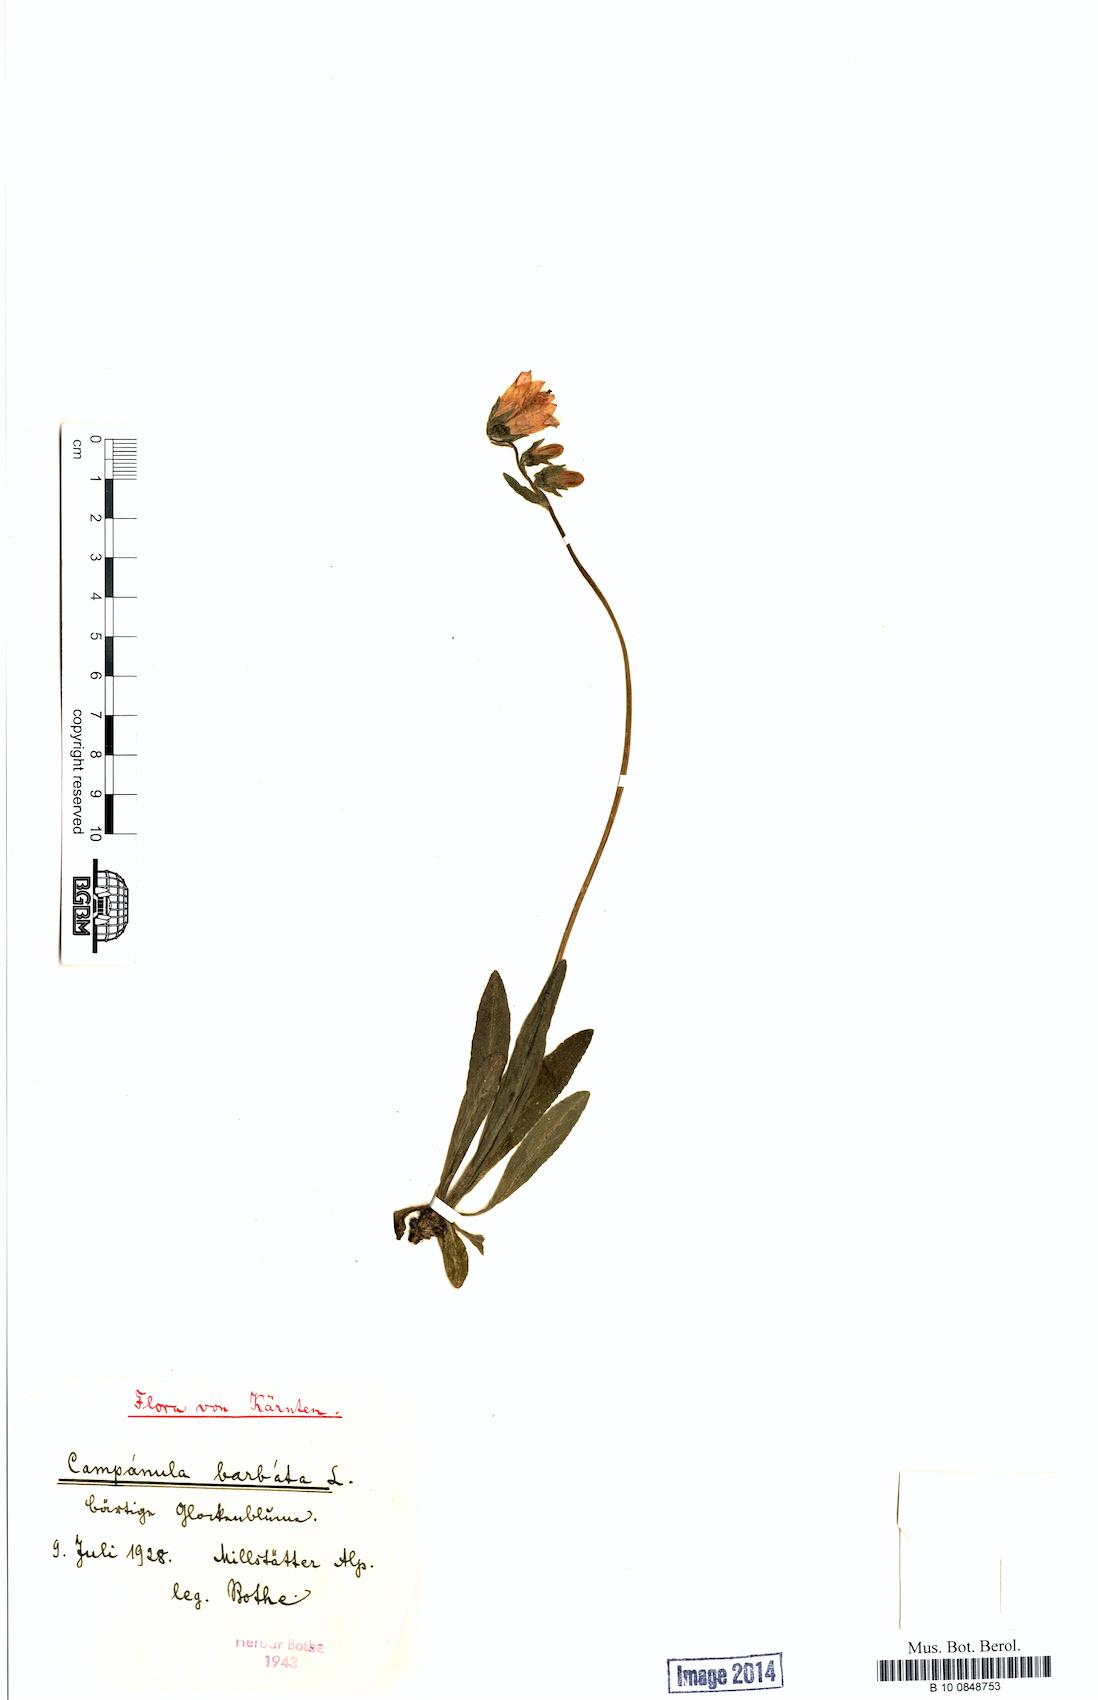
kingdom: Plantae
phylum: Tracheophyta
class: Magnoliopsida
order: Asterales
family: Campanulaceae
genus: Campanula
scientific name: Campanula barbata
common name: Bearded bellflower
